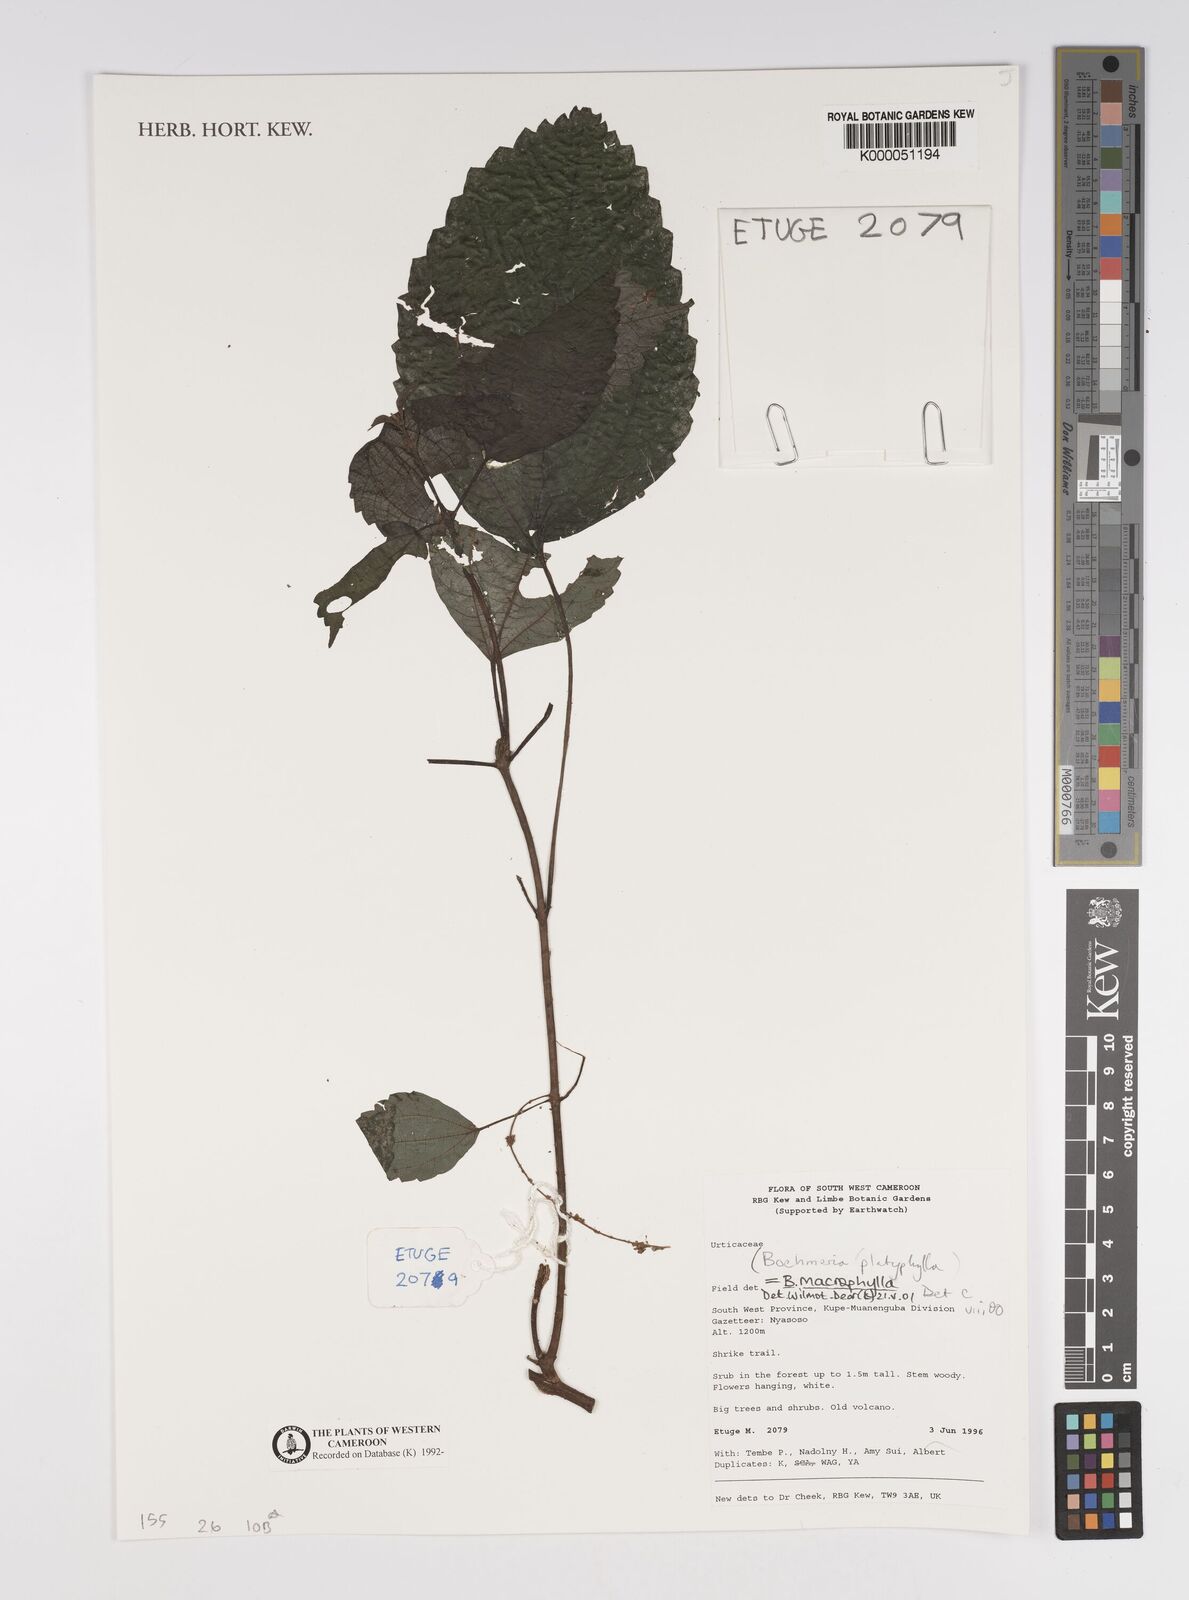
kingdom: Plantae
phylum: Tracheophyta
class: Magnoliopsida
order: Rosales
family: Urticaceae
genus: Boehmeria
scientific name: Boehmeria virgata
